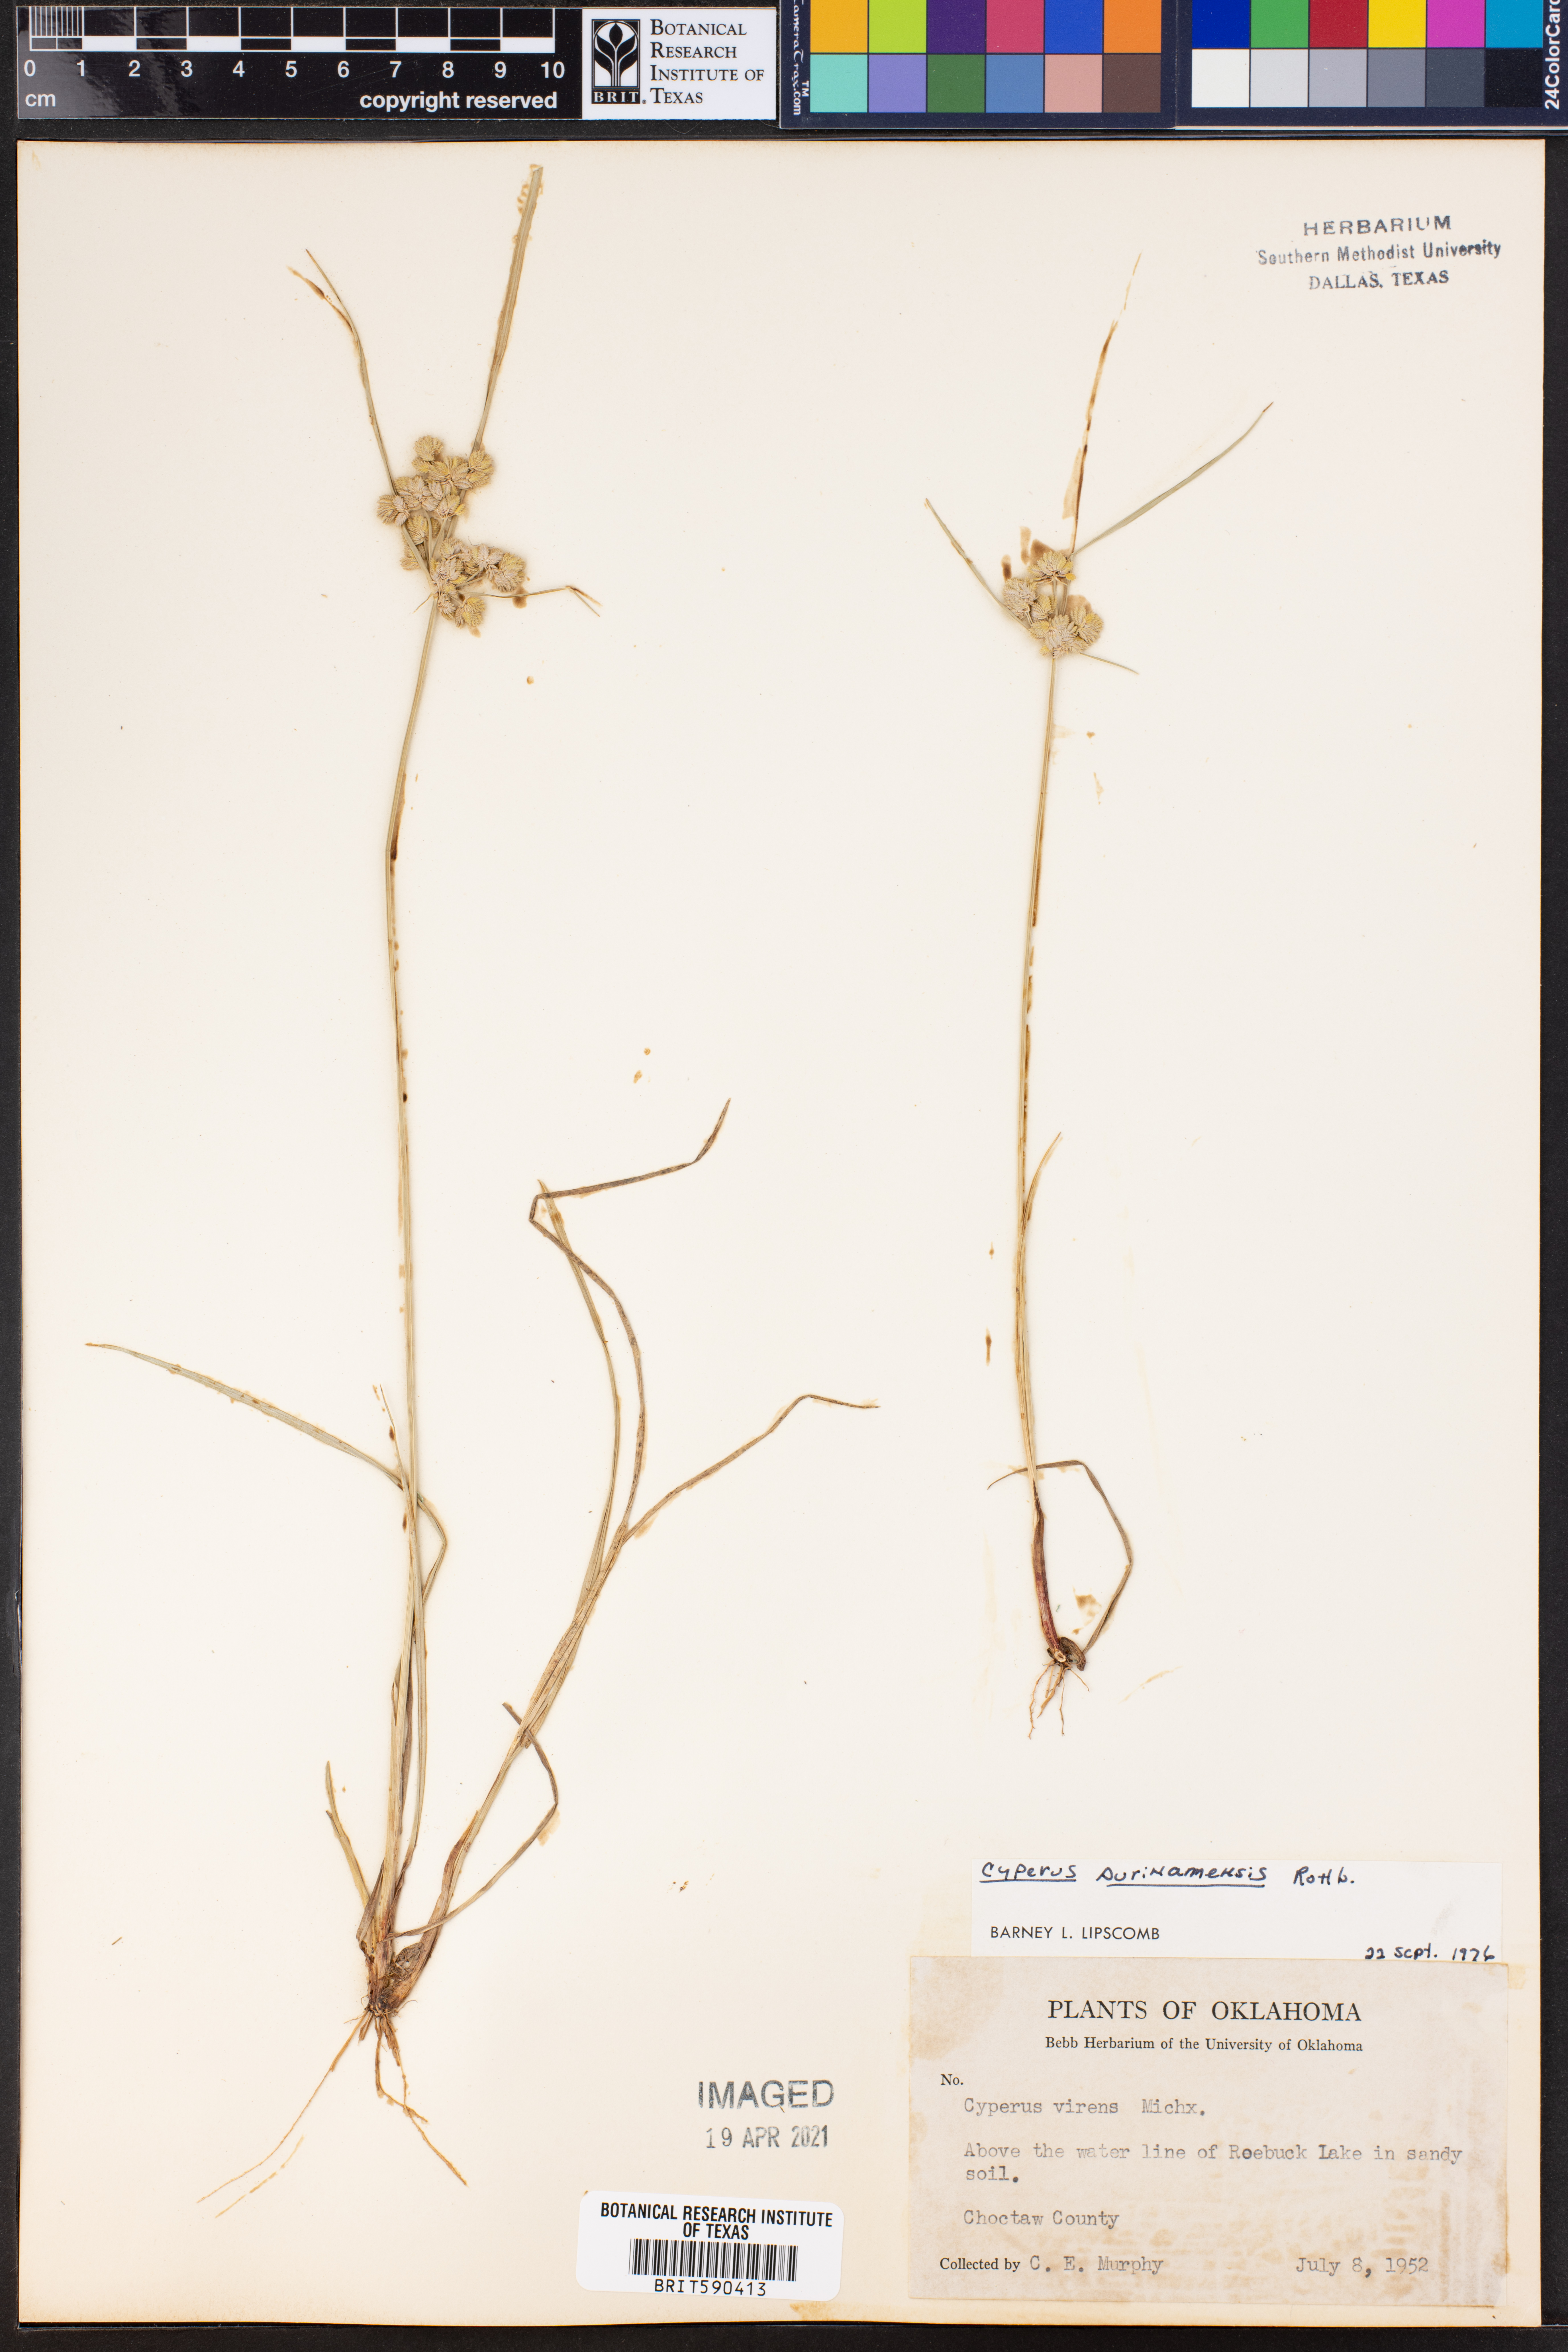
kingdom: Plantae
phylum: Tracheophyta
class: Liliopsida
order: Poales
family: Cyperaceae
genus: Cyperus
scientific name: Cyperus surinamensis
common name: Tropical flat sedge
